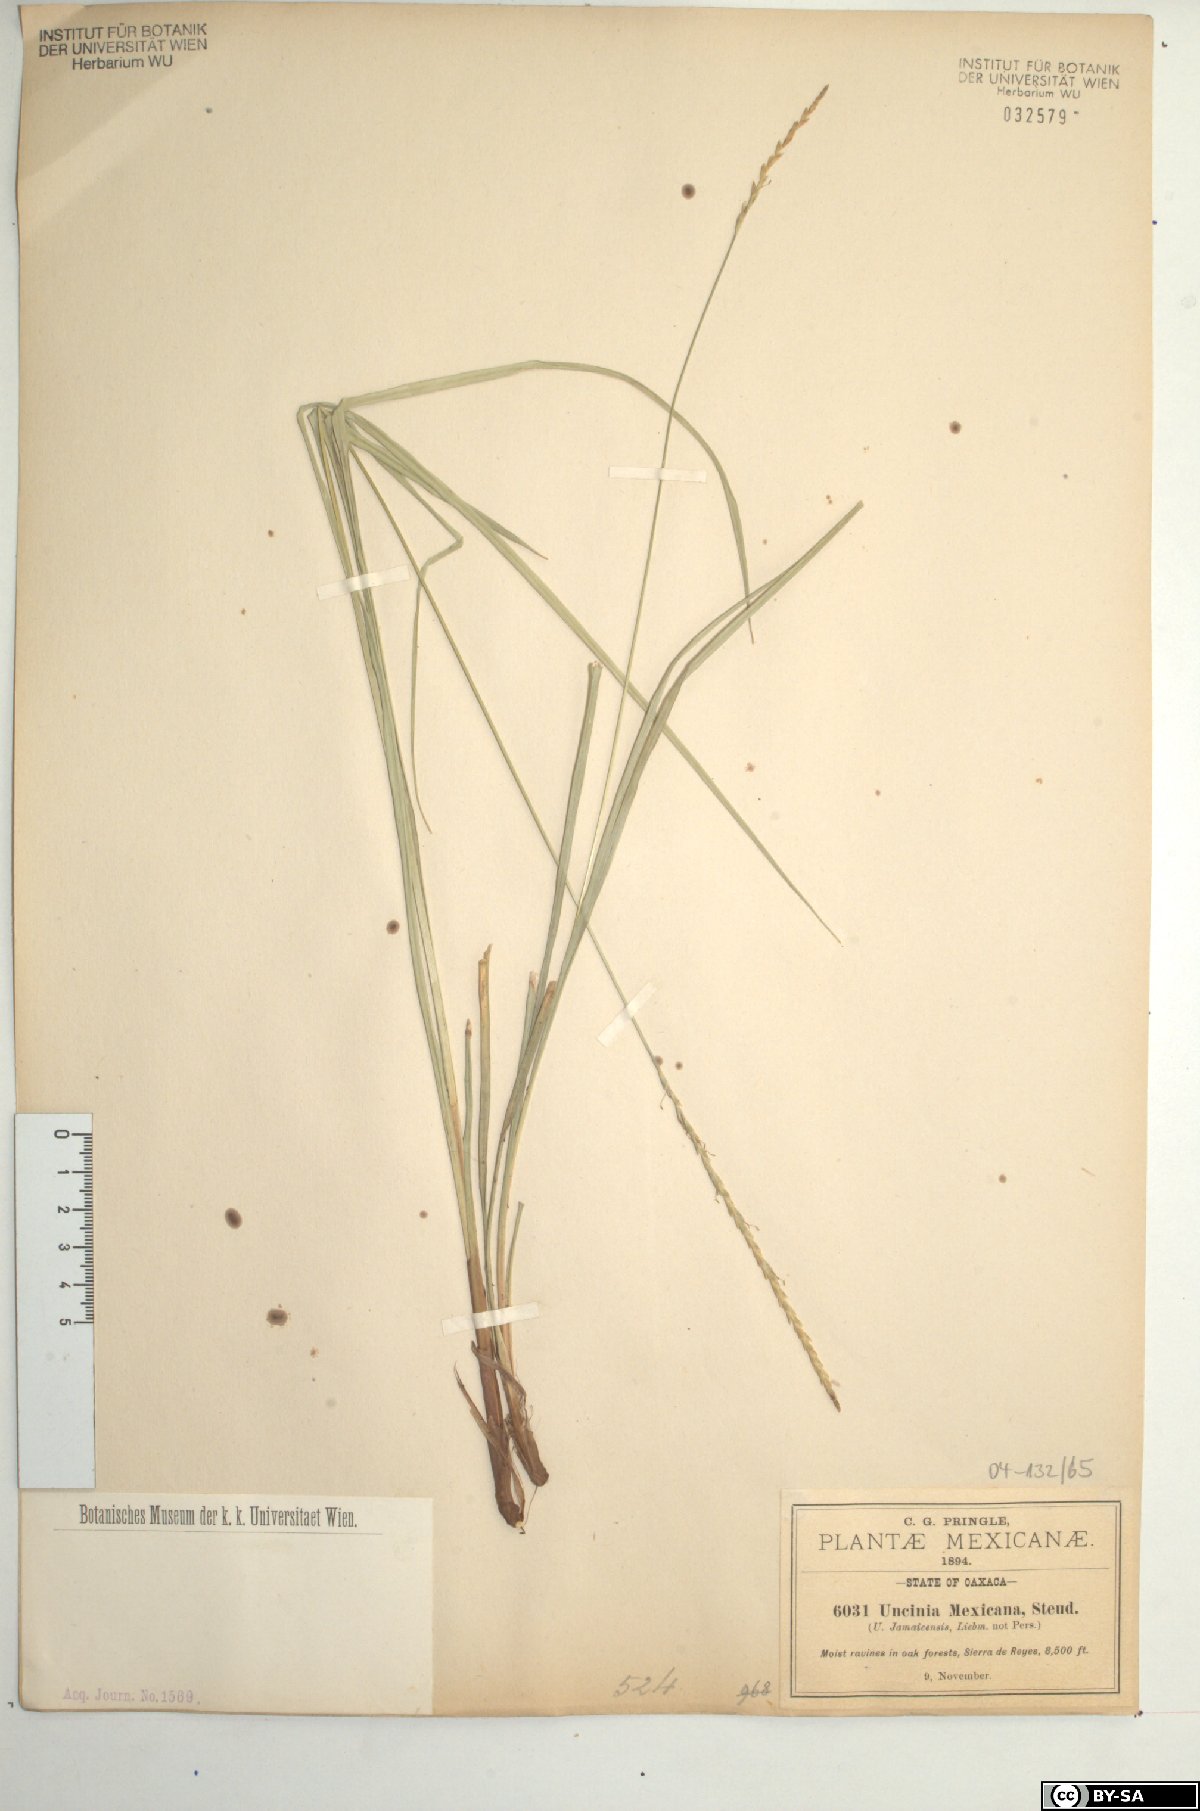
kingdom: Plantae
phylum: Tracheophyta
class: Liliopsida
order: Poales
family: Cyperaceae
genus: Carex
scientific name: Carex hamata
